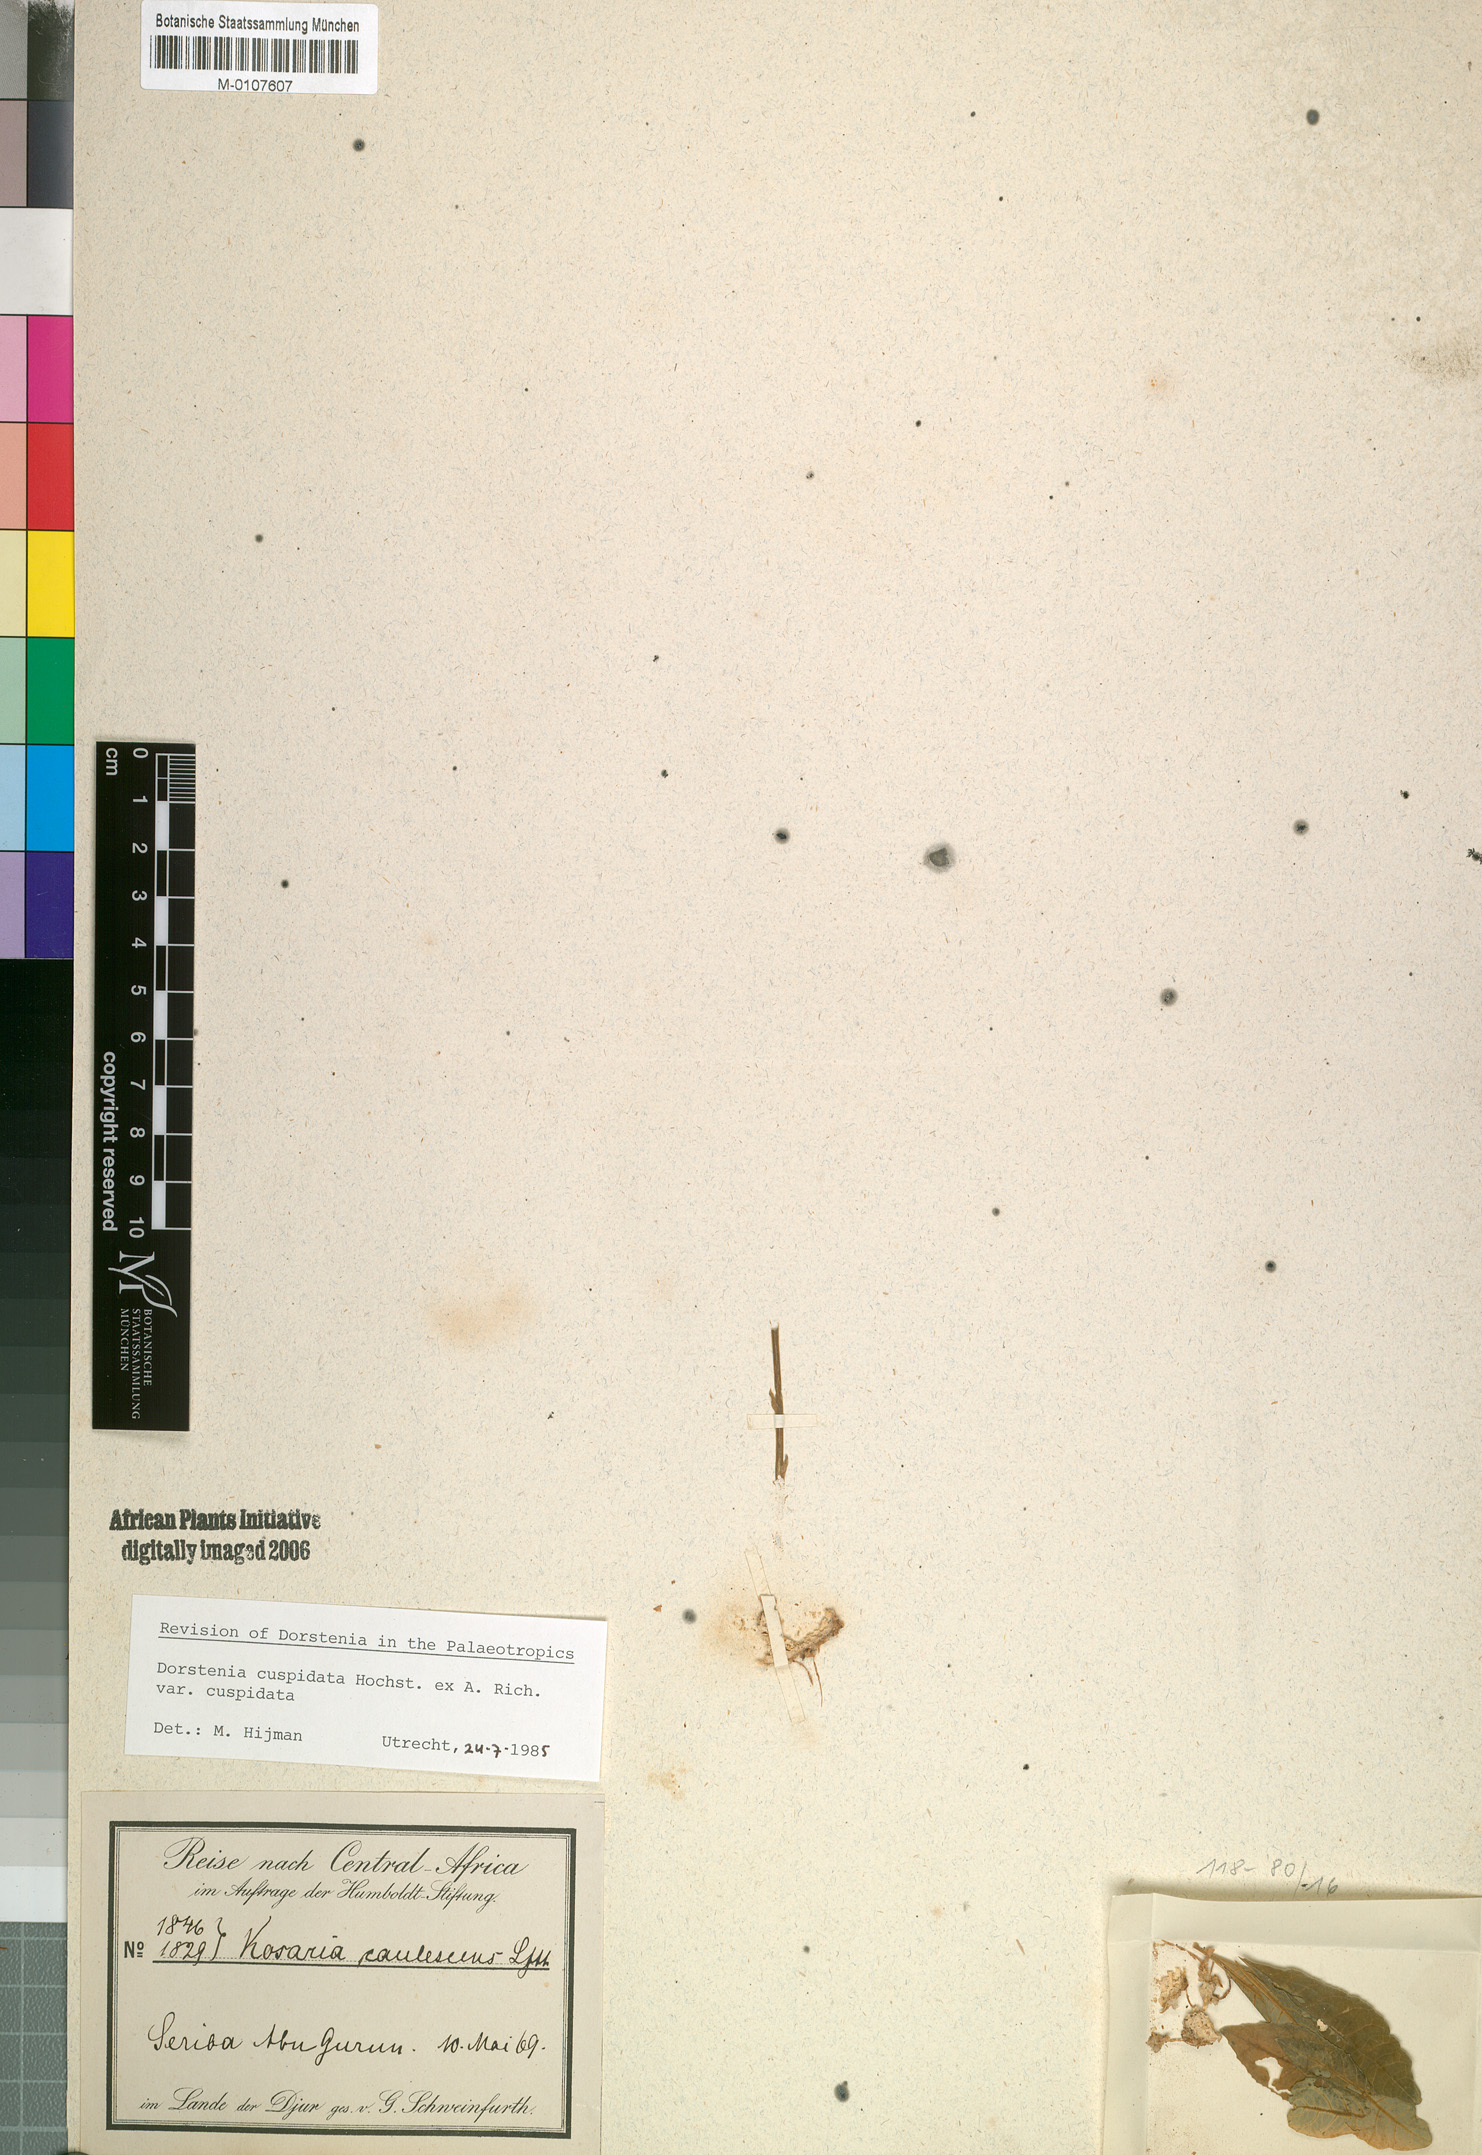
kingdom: Plantae
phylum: Tracheophyta
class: Magnoliopsida
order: Rosales
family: Moraceae
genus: Dorstenia
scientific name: Dorstenia cuspidata
